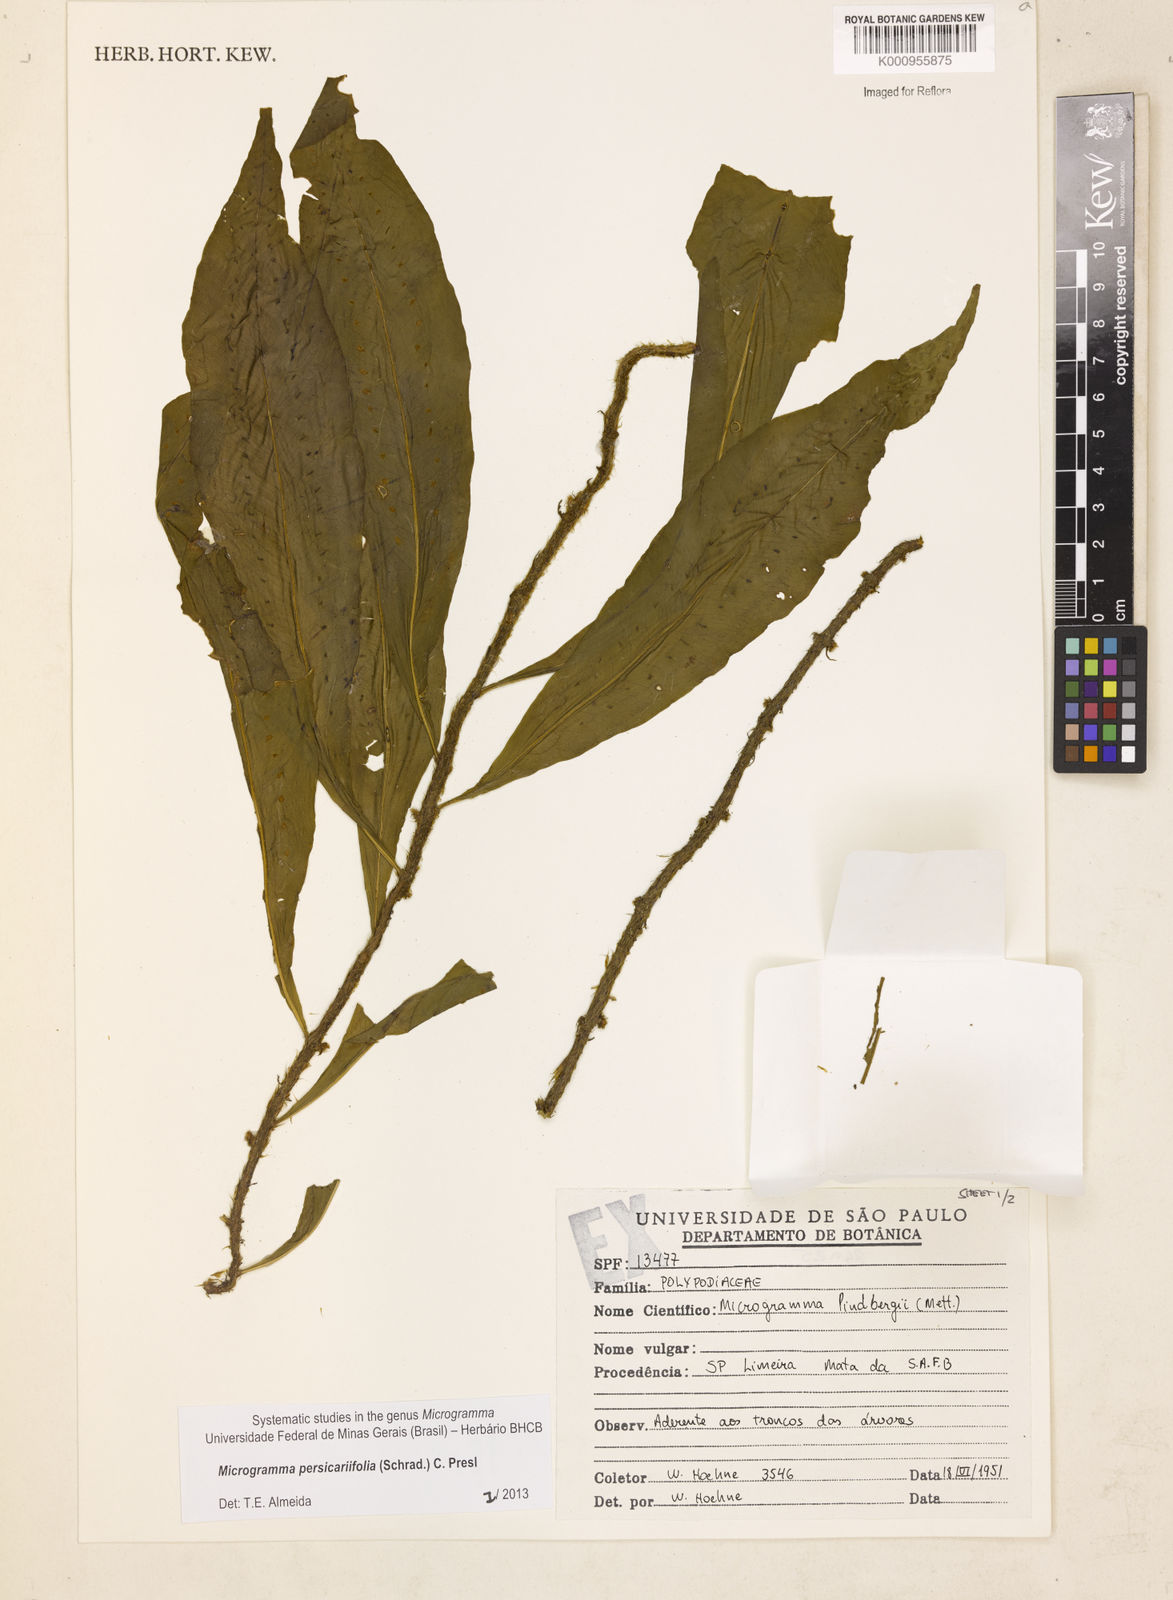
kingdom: Plantae
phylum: Tracheophyta
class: Polypodiopsida
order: Polypodiales
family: Polypodiaceae
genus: Microgramma
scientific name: Microgramma persicariifolia
